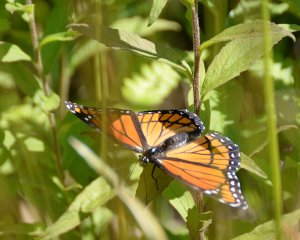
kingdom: Animalia
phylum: Arthropoda
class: Insecta
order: Lepidoptera
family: Nymphalidae
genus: Limenitis
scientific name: Limenitis archippus
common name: Viceroy
